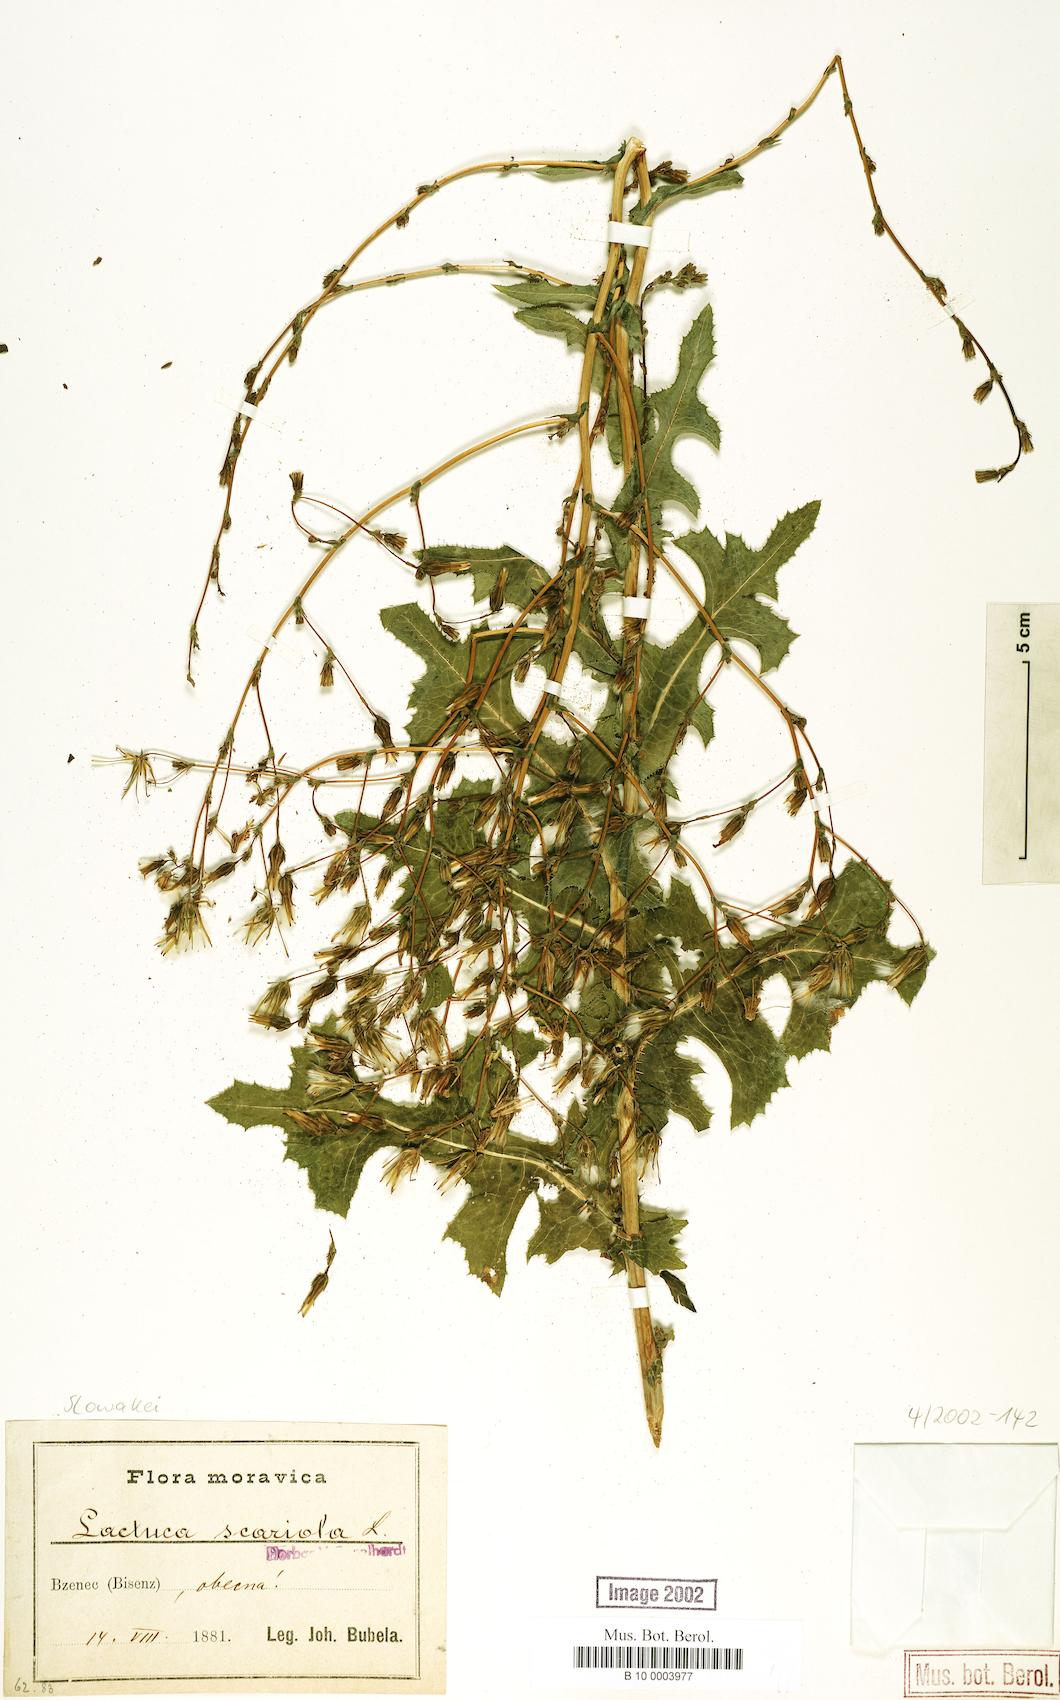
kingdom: Plantae
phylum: Tracheophyta
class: Magnoliopsida
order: Asterales
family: Asteraceae
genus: Lactuca
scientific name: Lactuca serriola
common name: Prickly lettuce
